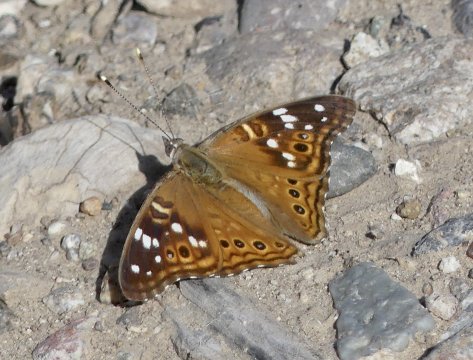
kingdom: Animalia
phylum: Arthropoda
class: Insecta
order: Lepidoptera
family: Nymphalidae
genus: Asterocampa
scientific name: Asterocampa leilia
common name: Empress Leilia
